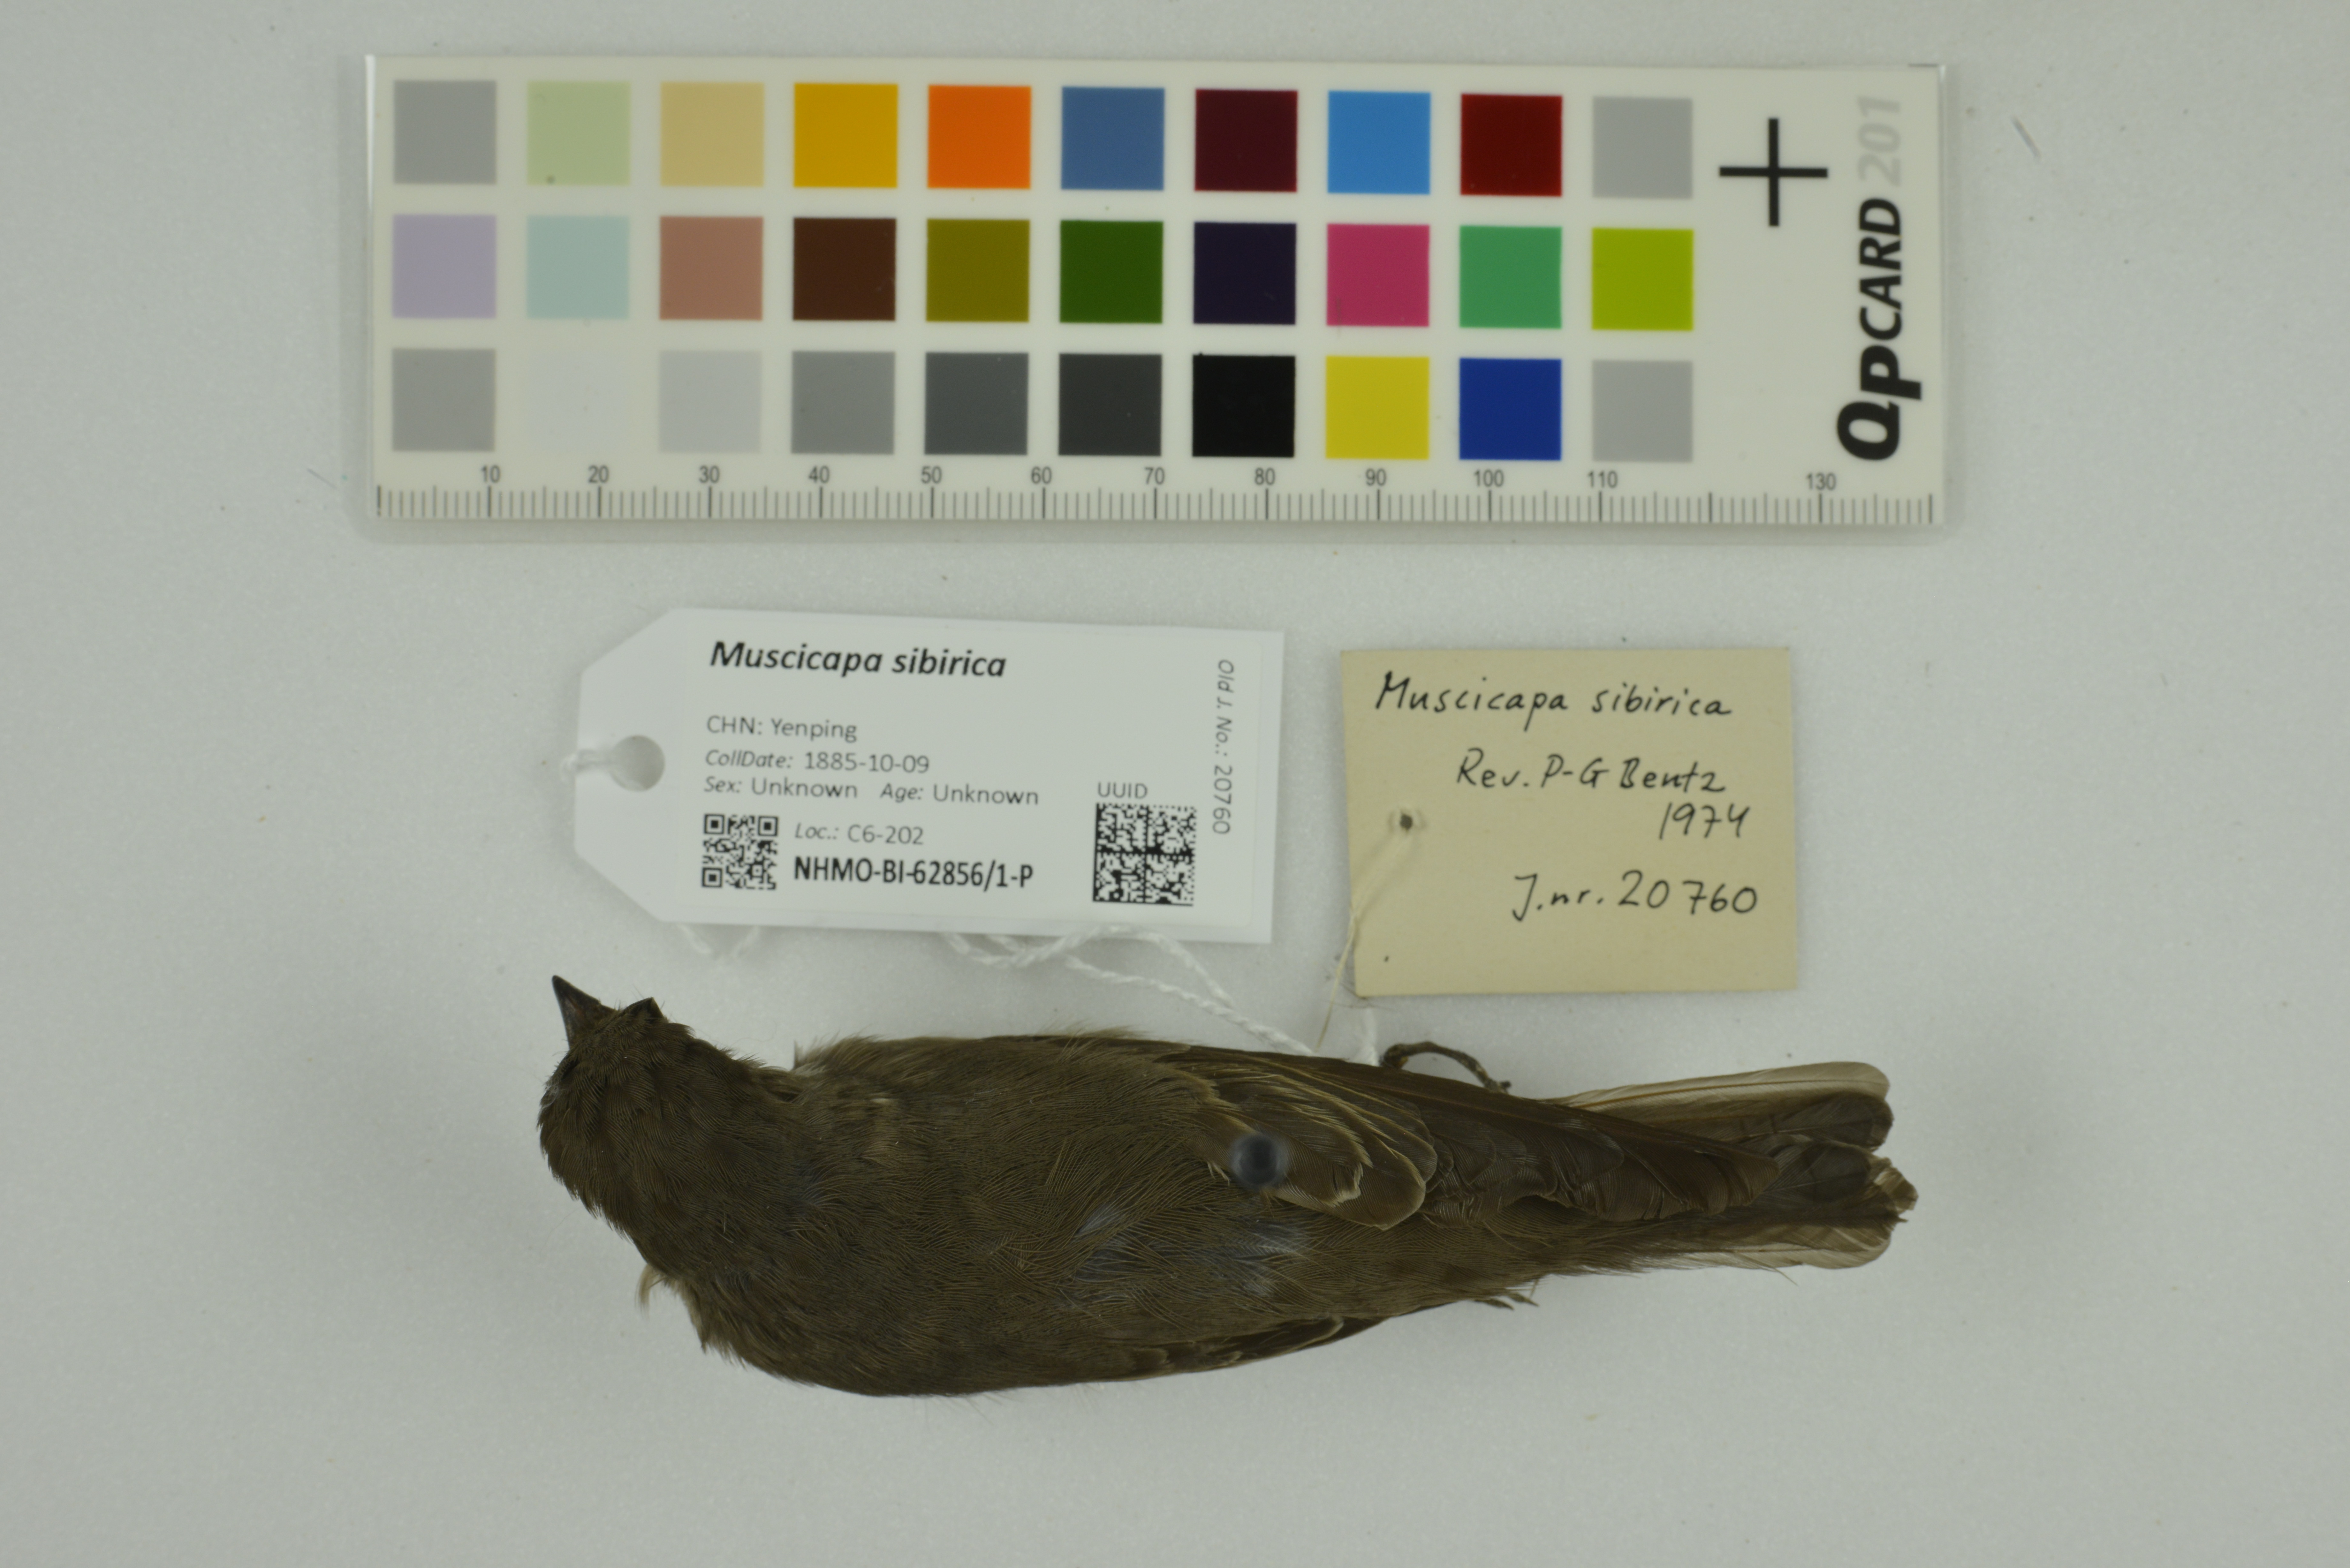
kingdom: Animalia
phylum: Chordata
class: Aves
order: Passeriformes
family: Muscicapidae
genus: Muscicapa
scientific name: Muscicapa sibirica
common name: Dark-sided flycatcher
